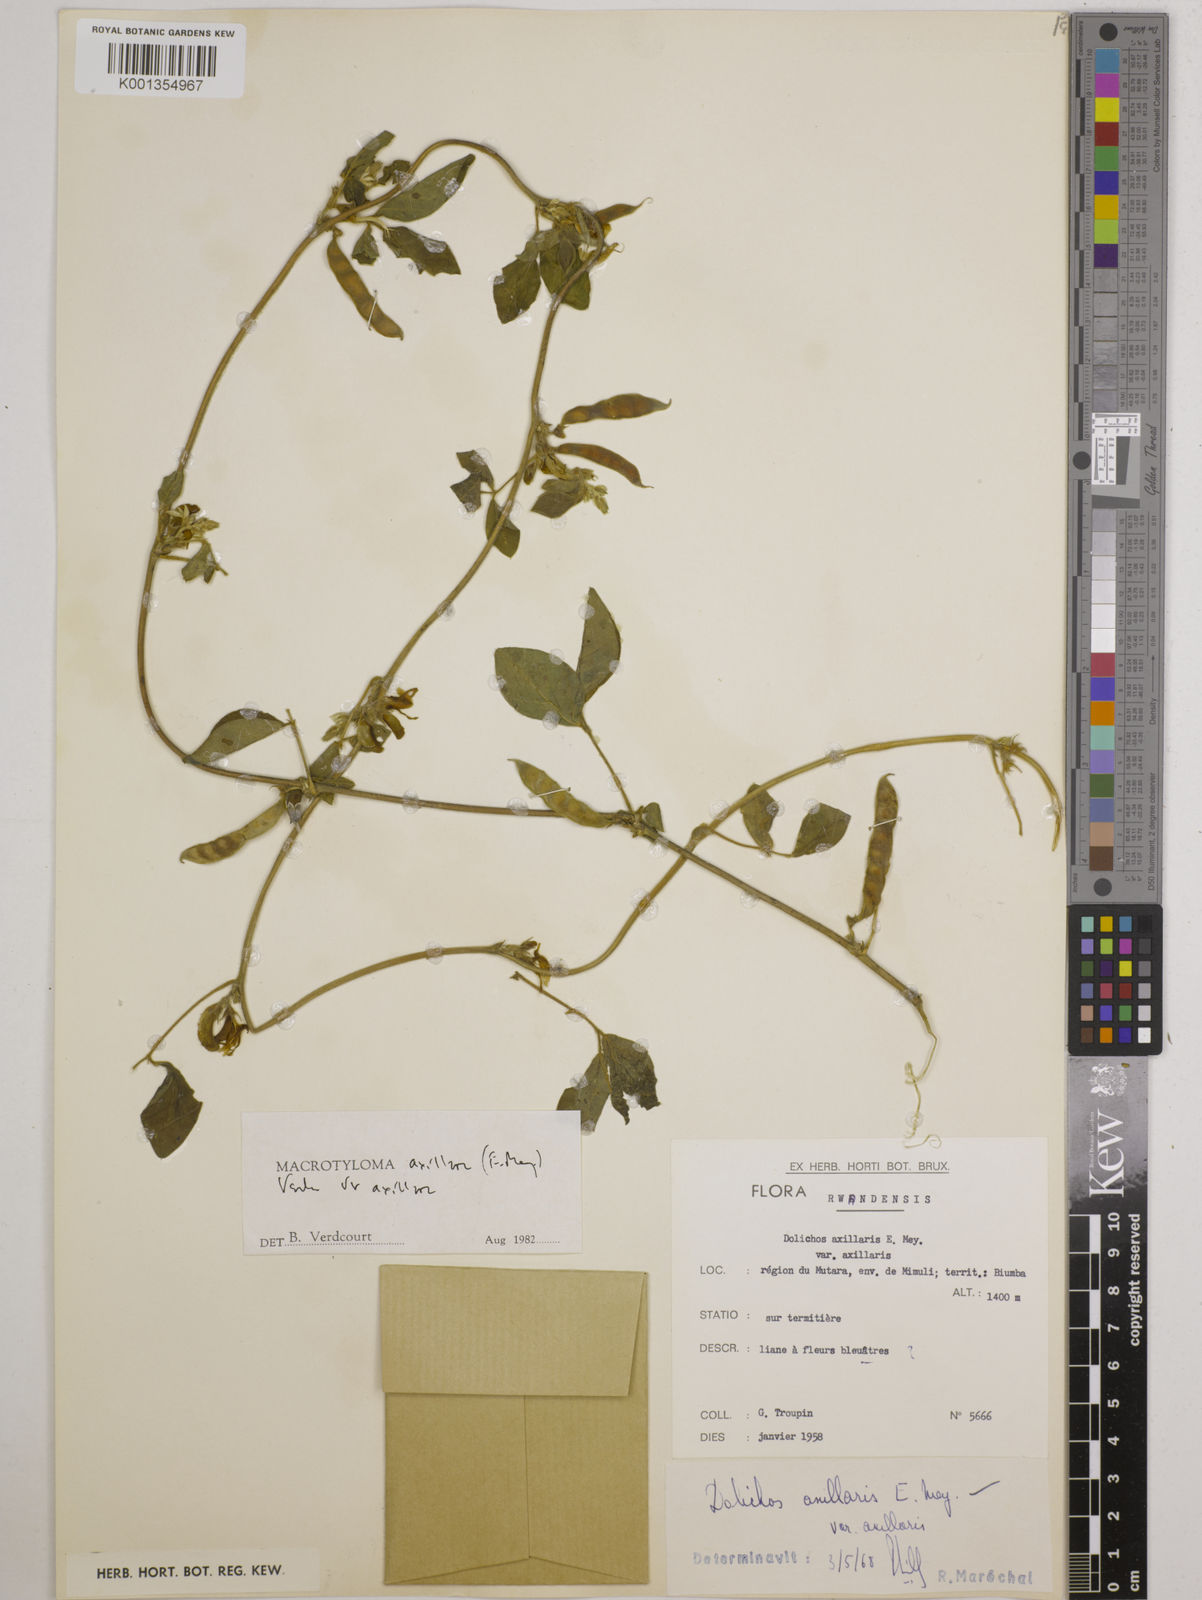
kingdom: Plantae
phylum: Tracheophyta
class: Magnoliopsida
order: Fabales
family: Fabaceae
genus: Macrotyloma
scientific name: Macrotyloma axillare
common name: Perennial horsegram
